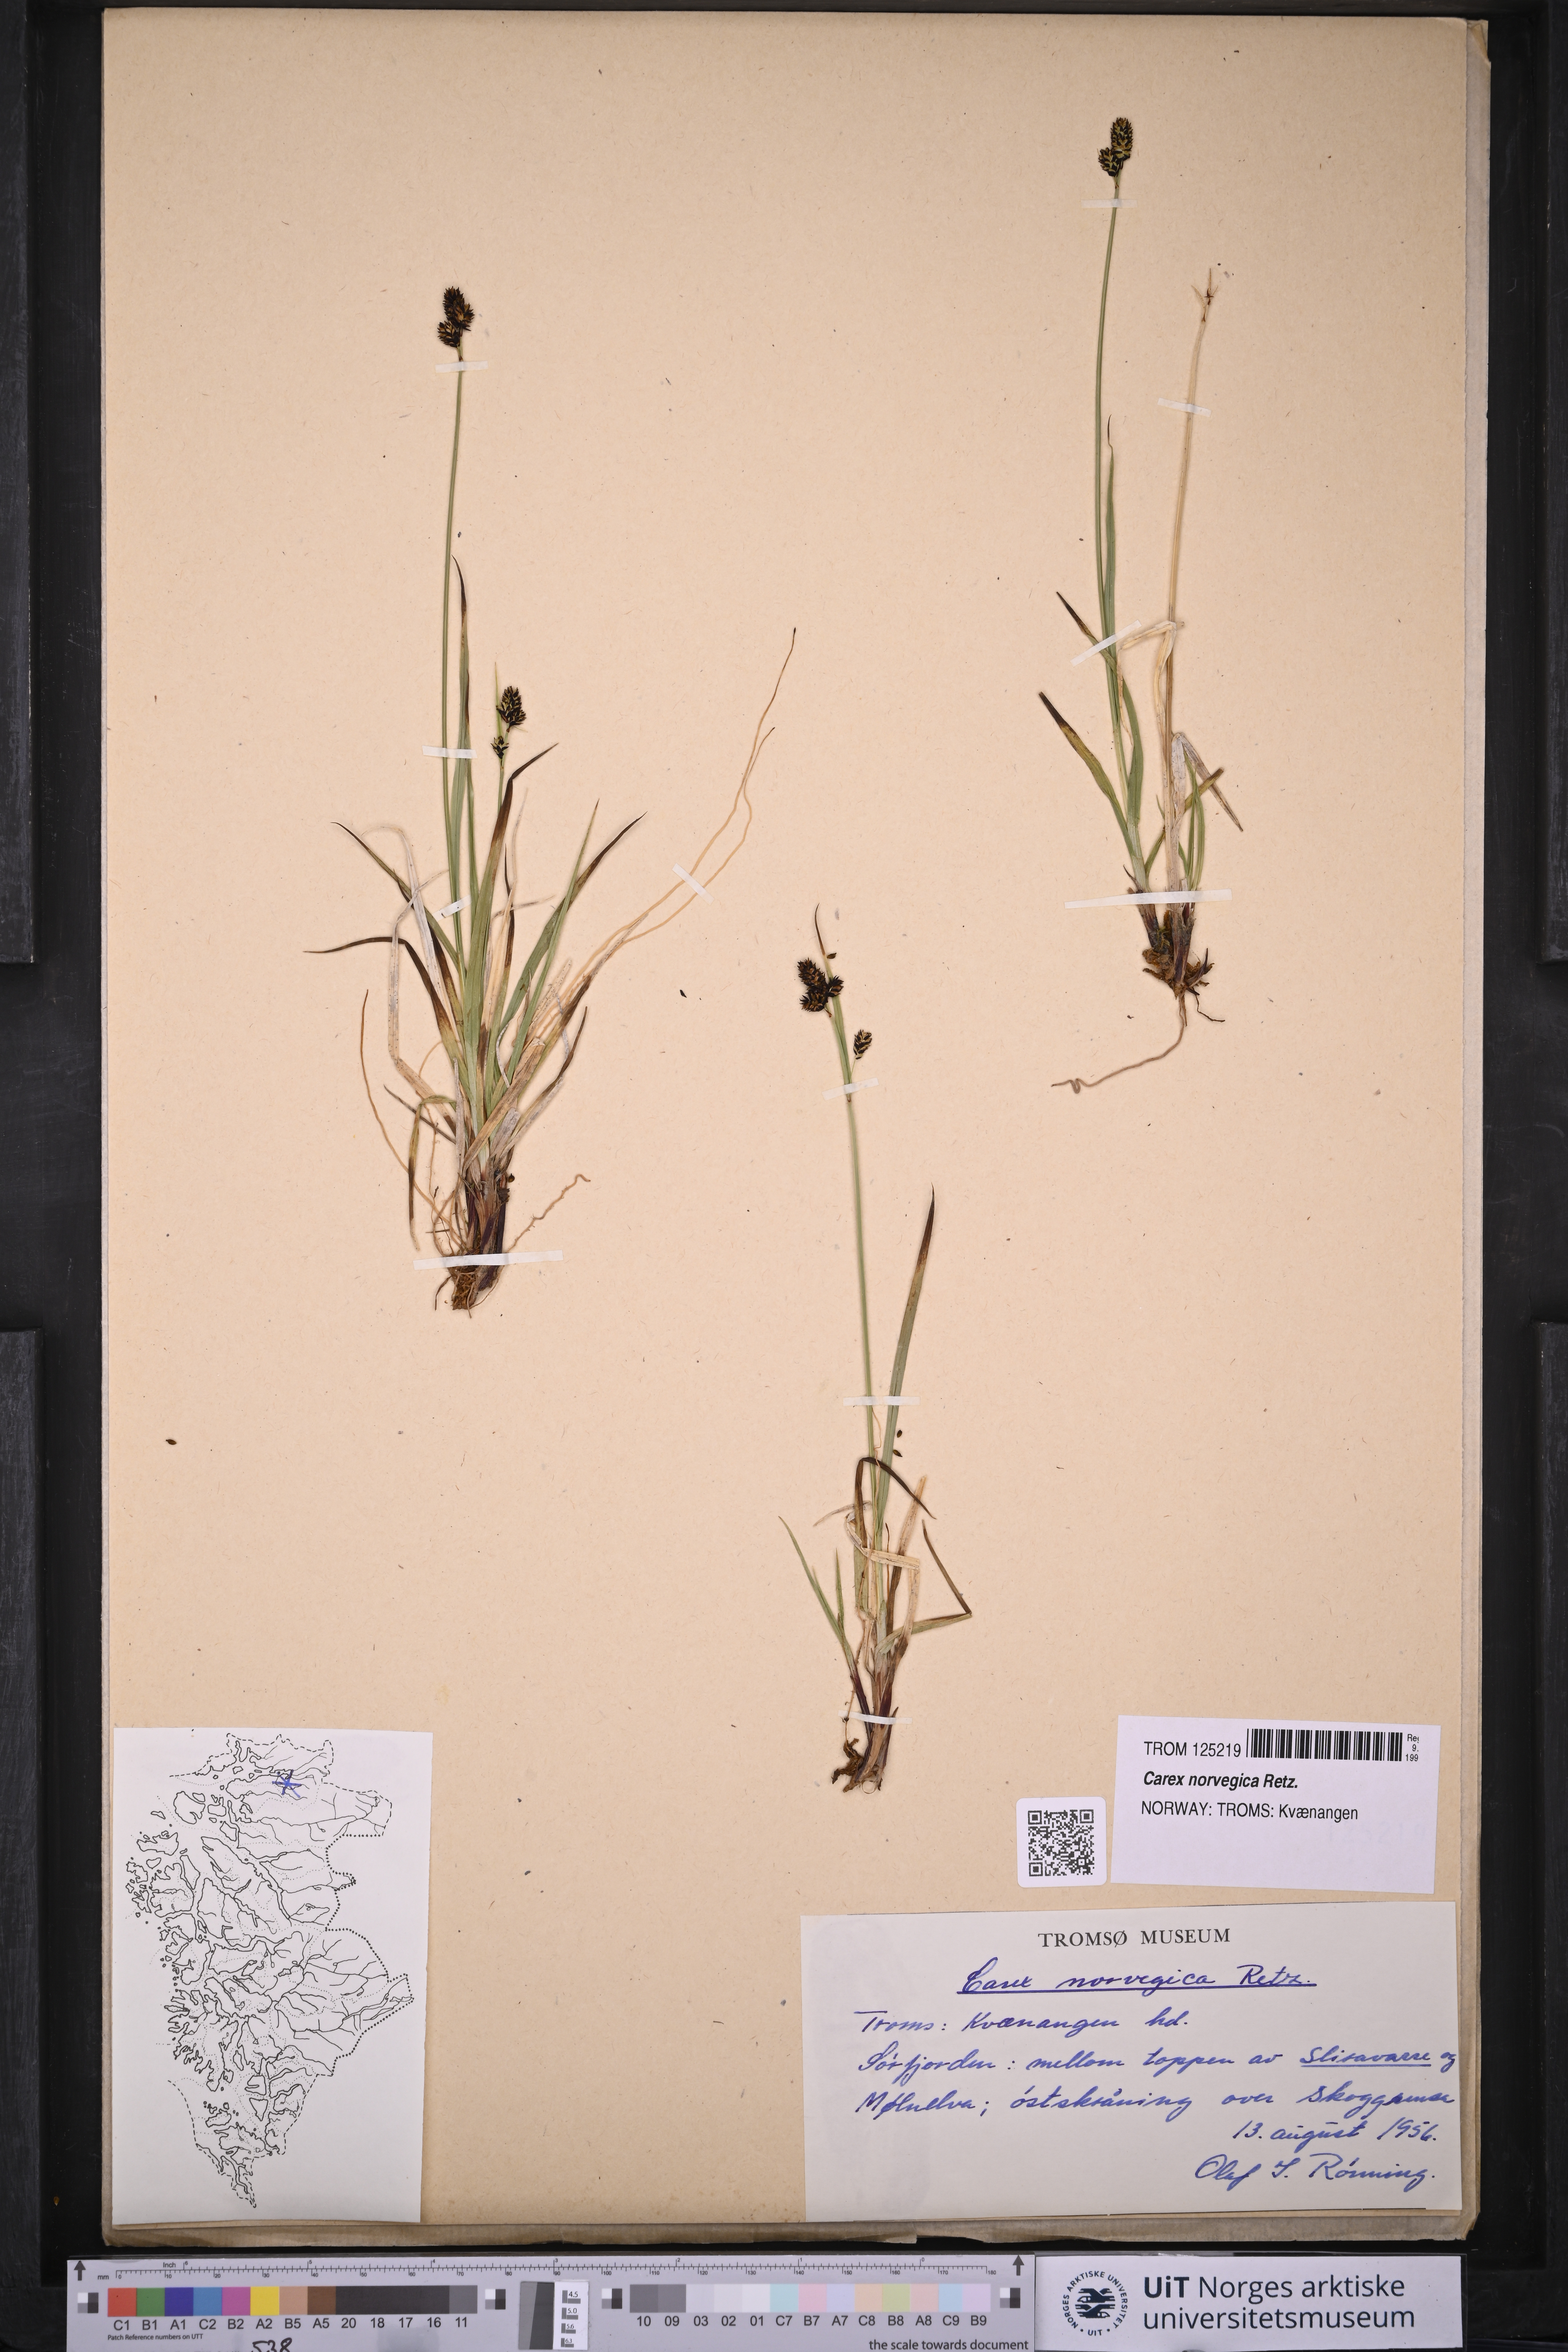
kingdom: Plantae
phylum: Tracheophyta
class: Liliopsida
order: Poales
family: Cyperaceae
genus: Carex
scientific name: Carex norvegica
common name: Close-headed alpine-sedge
